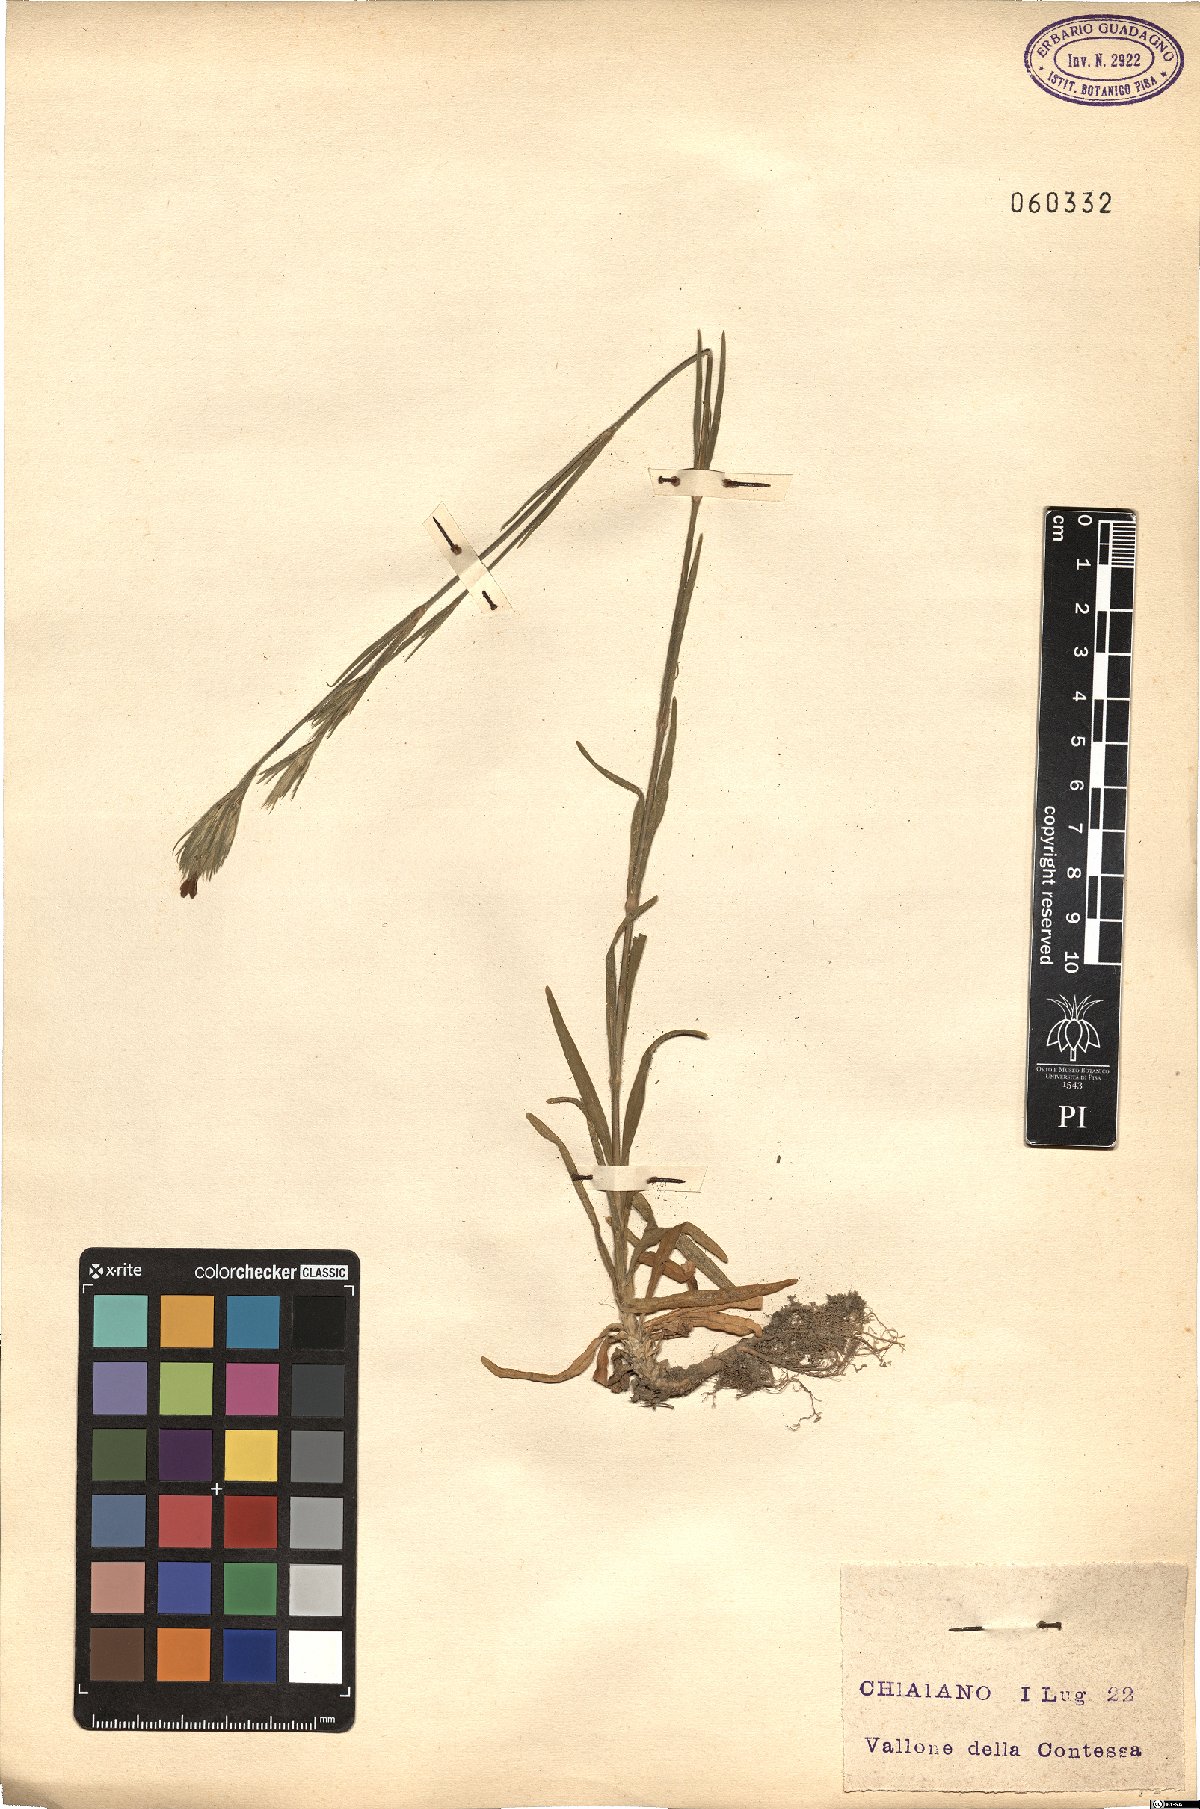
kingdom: Plantae
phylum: Tracheophyta
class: Magnoliopsida
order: Caryophyllales
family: Caryophyllaceae
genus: Dianthus
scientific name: Dianthus armeria
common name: Deptford pink
